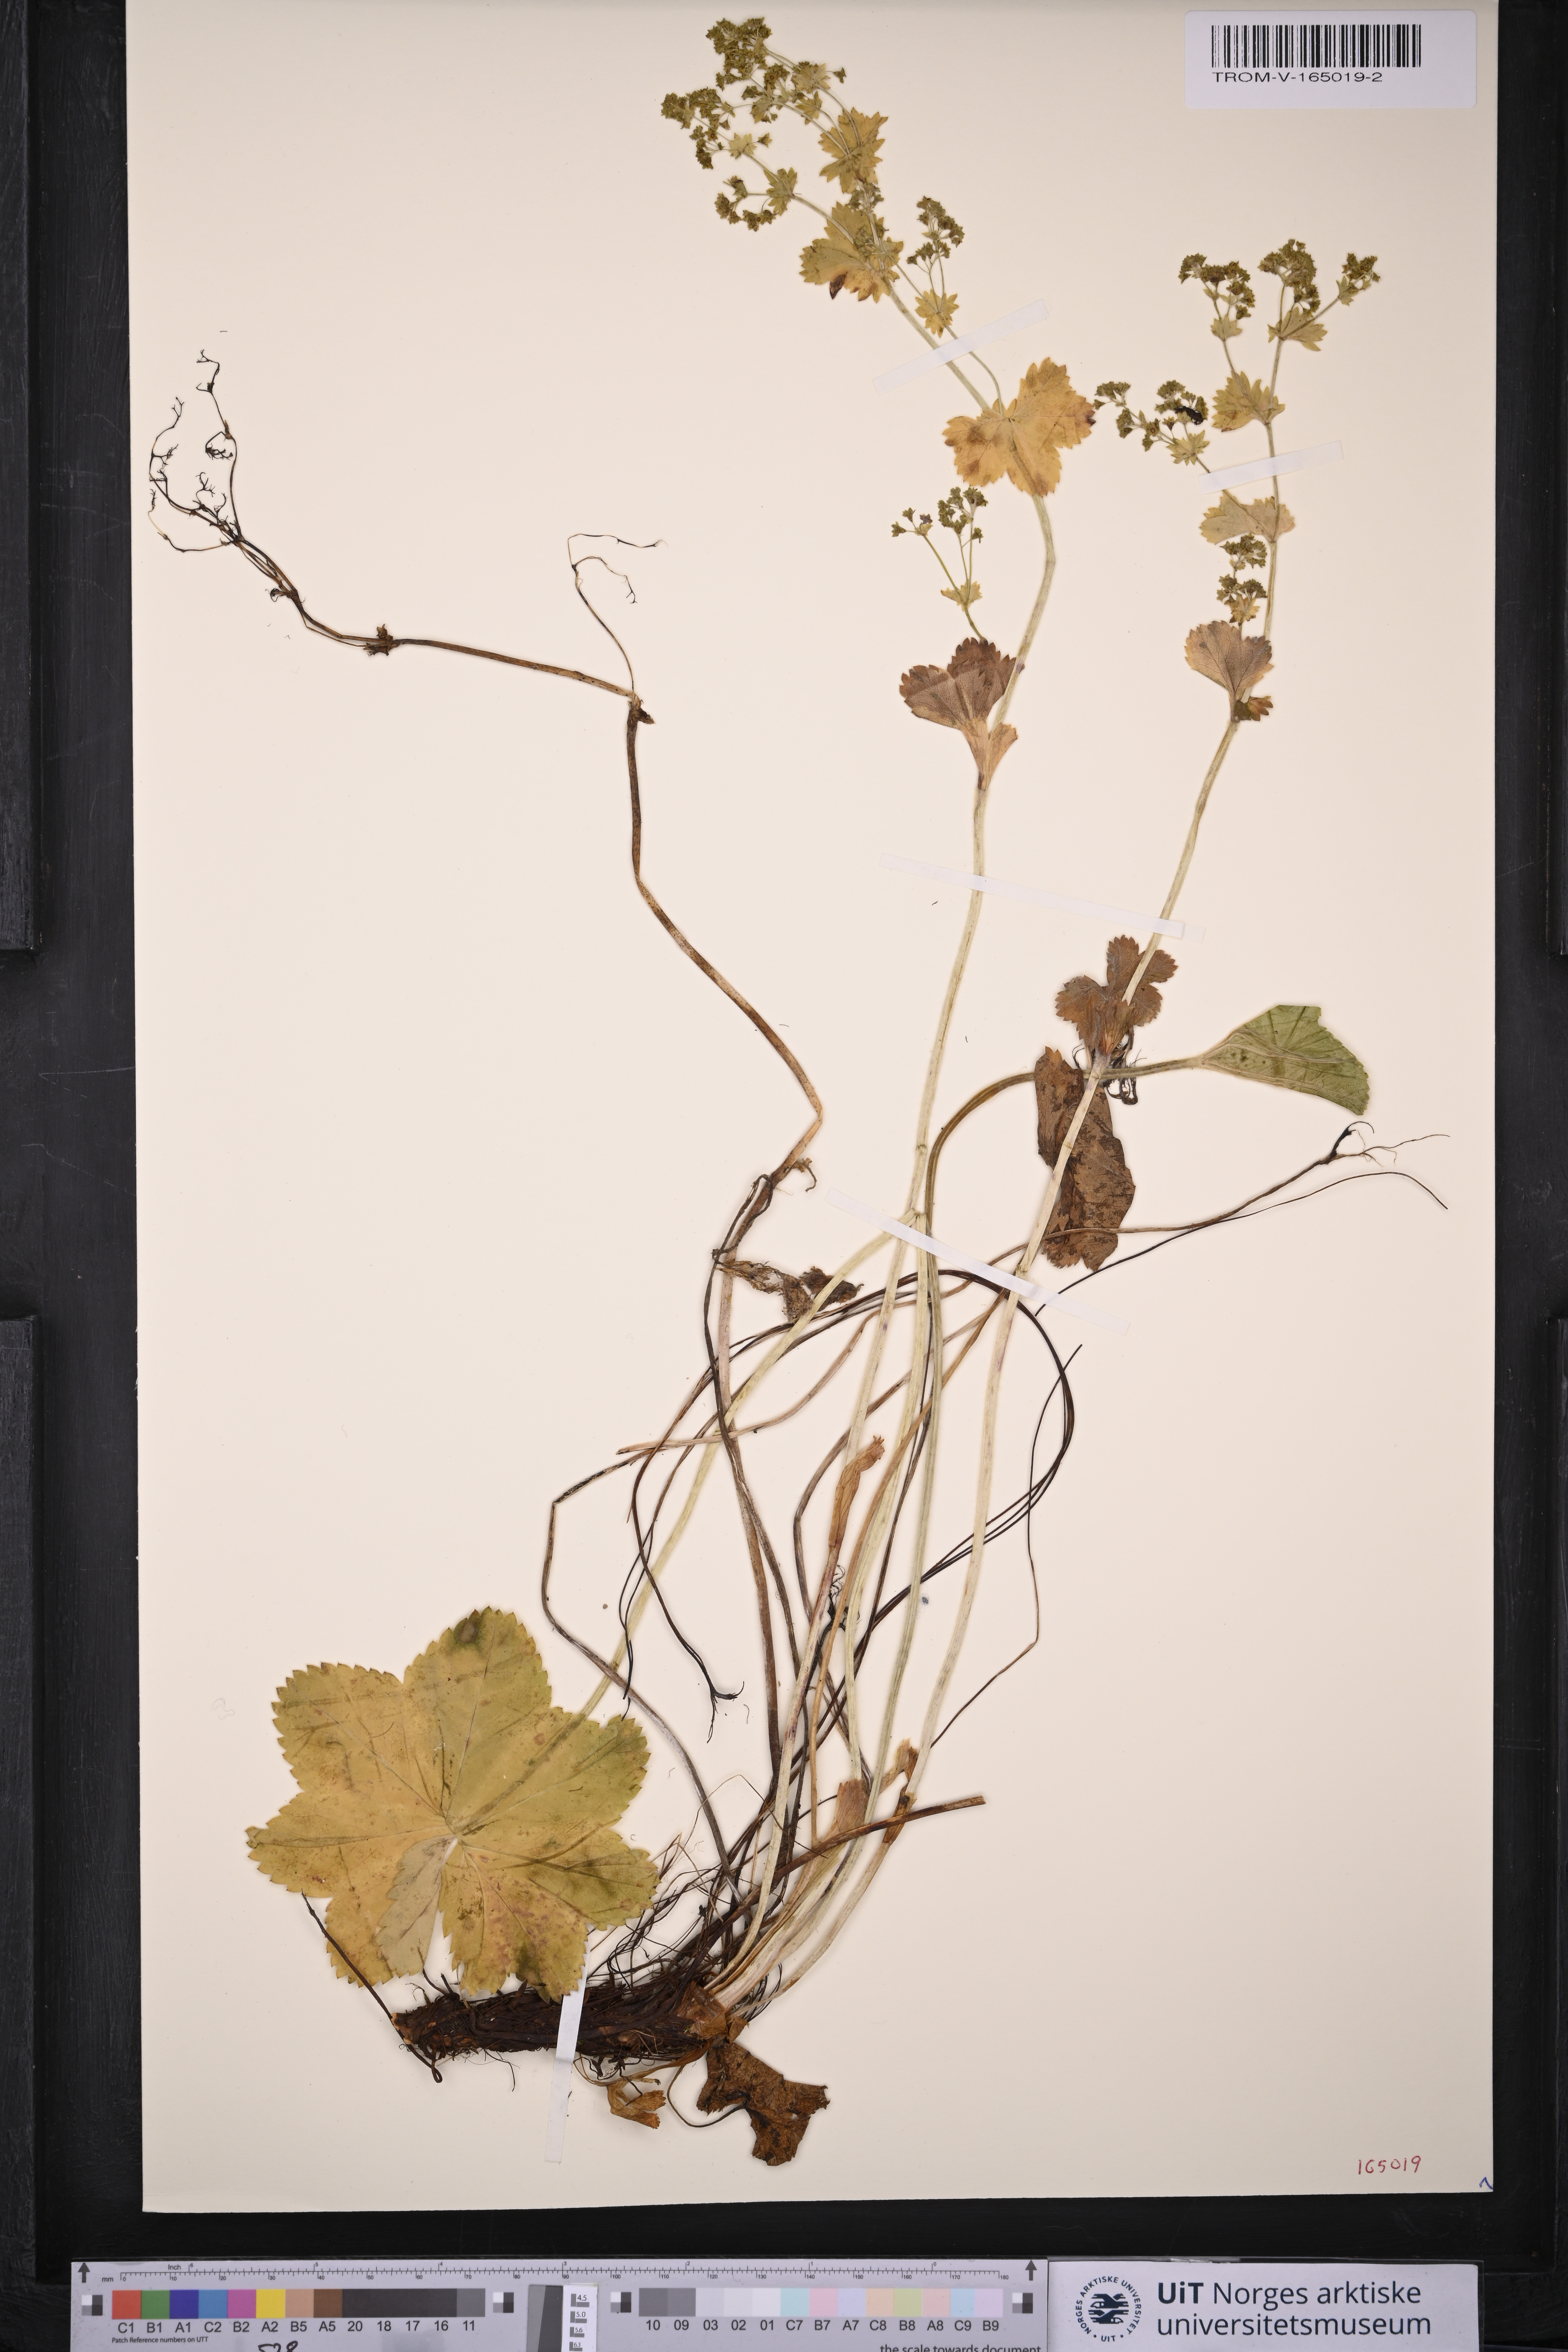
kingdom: Plantae
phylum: Tracheophyta
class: Magnoliopsida
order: Rosales
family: Rosaceae
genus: Alchemilla
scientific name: Alchemilla subcrenata
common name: Broadtooth lady's mantle
